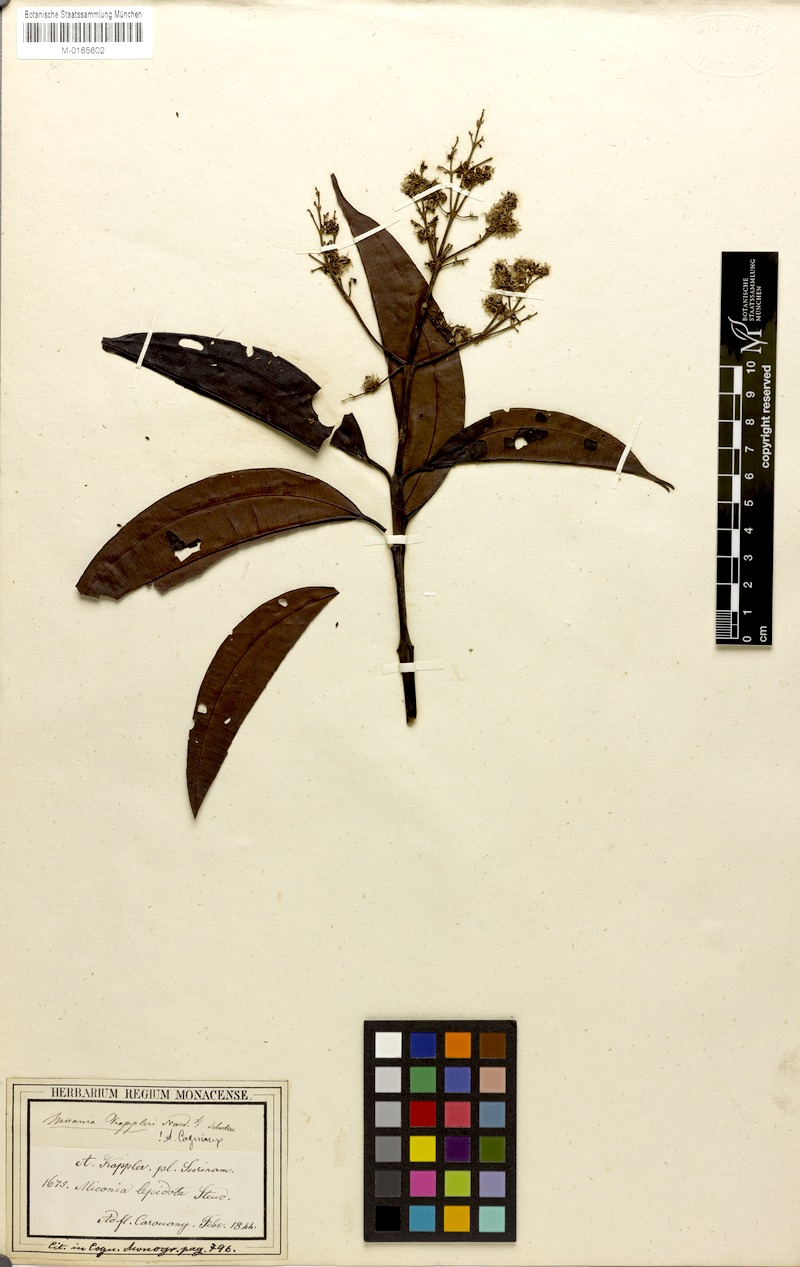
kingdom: Plantae
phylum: Tracheophyta
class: Magnoliopsida
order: Myrtales
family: Melastomataceae
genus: Miconia
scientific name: Miconia kappleri
